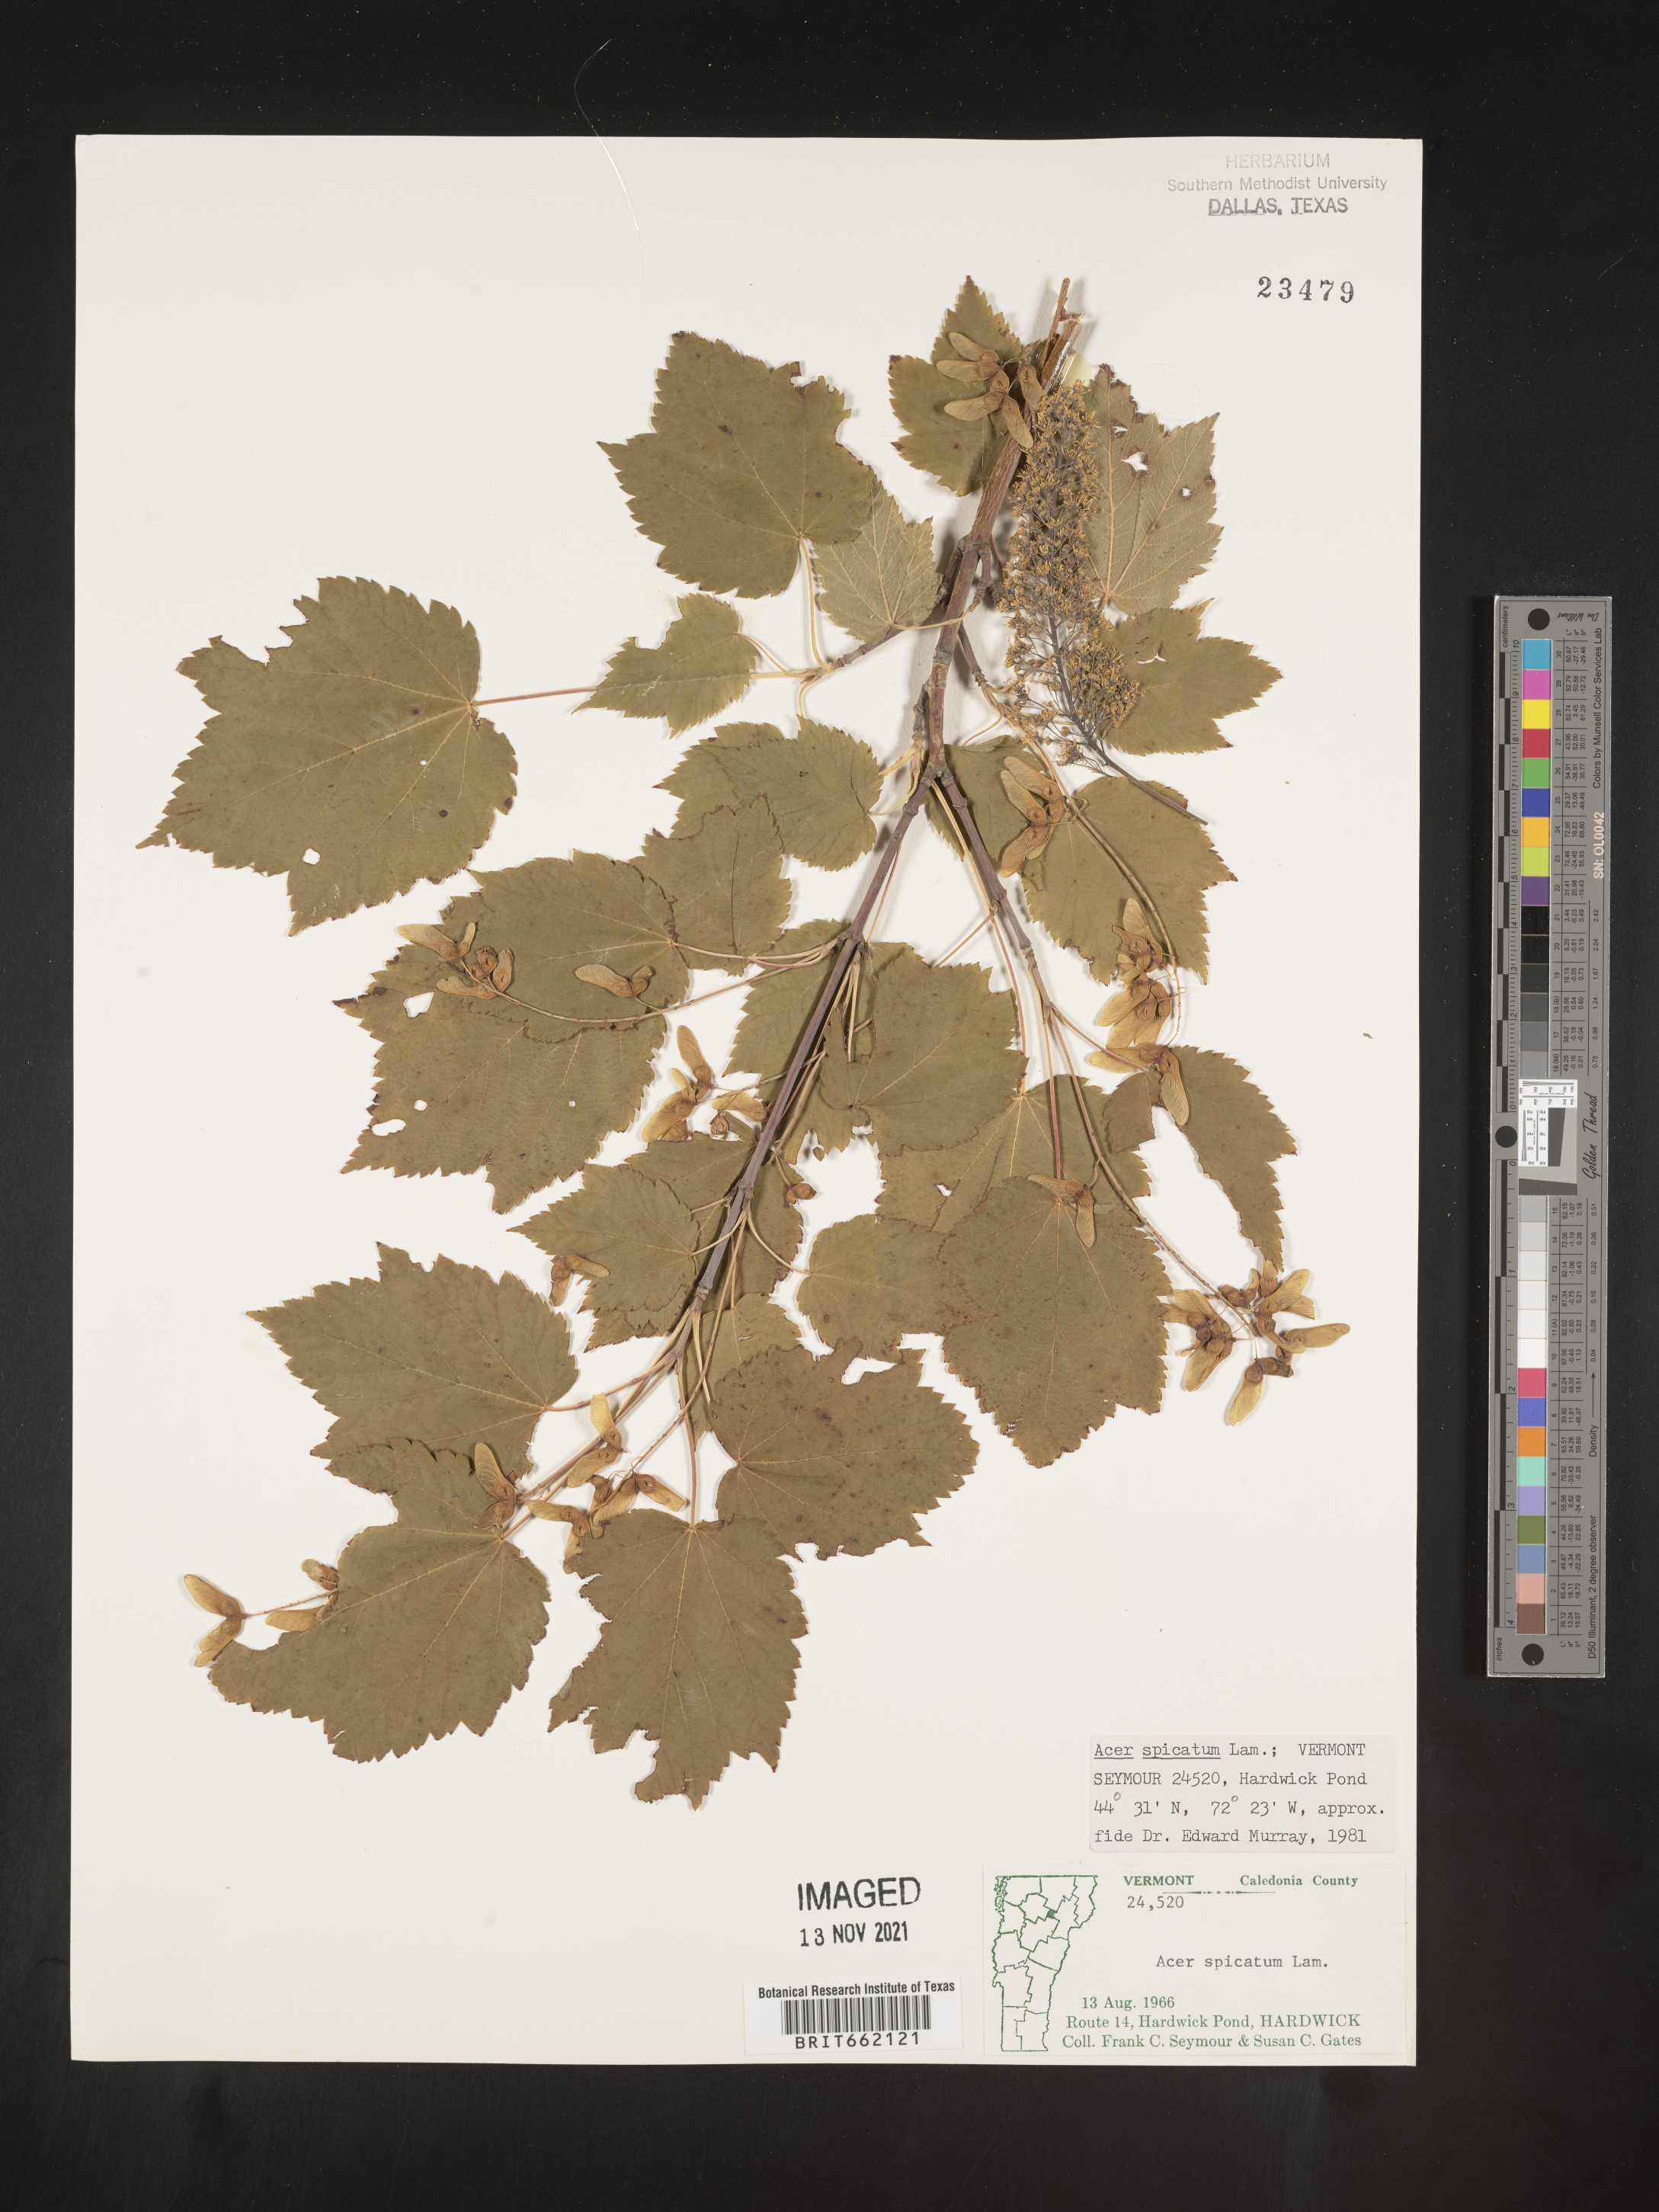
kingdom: Plantae
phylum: Tracheophyta
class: Magnoliopsida
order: Sapindales
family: Sapindaceae
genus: Acer
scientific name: Acer spicatum
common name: Mountain maple
